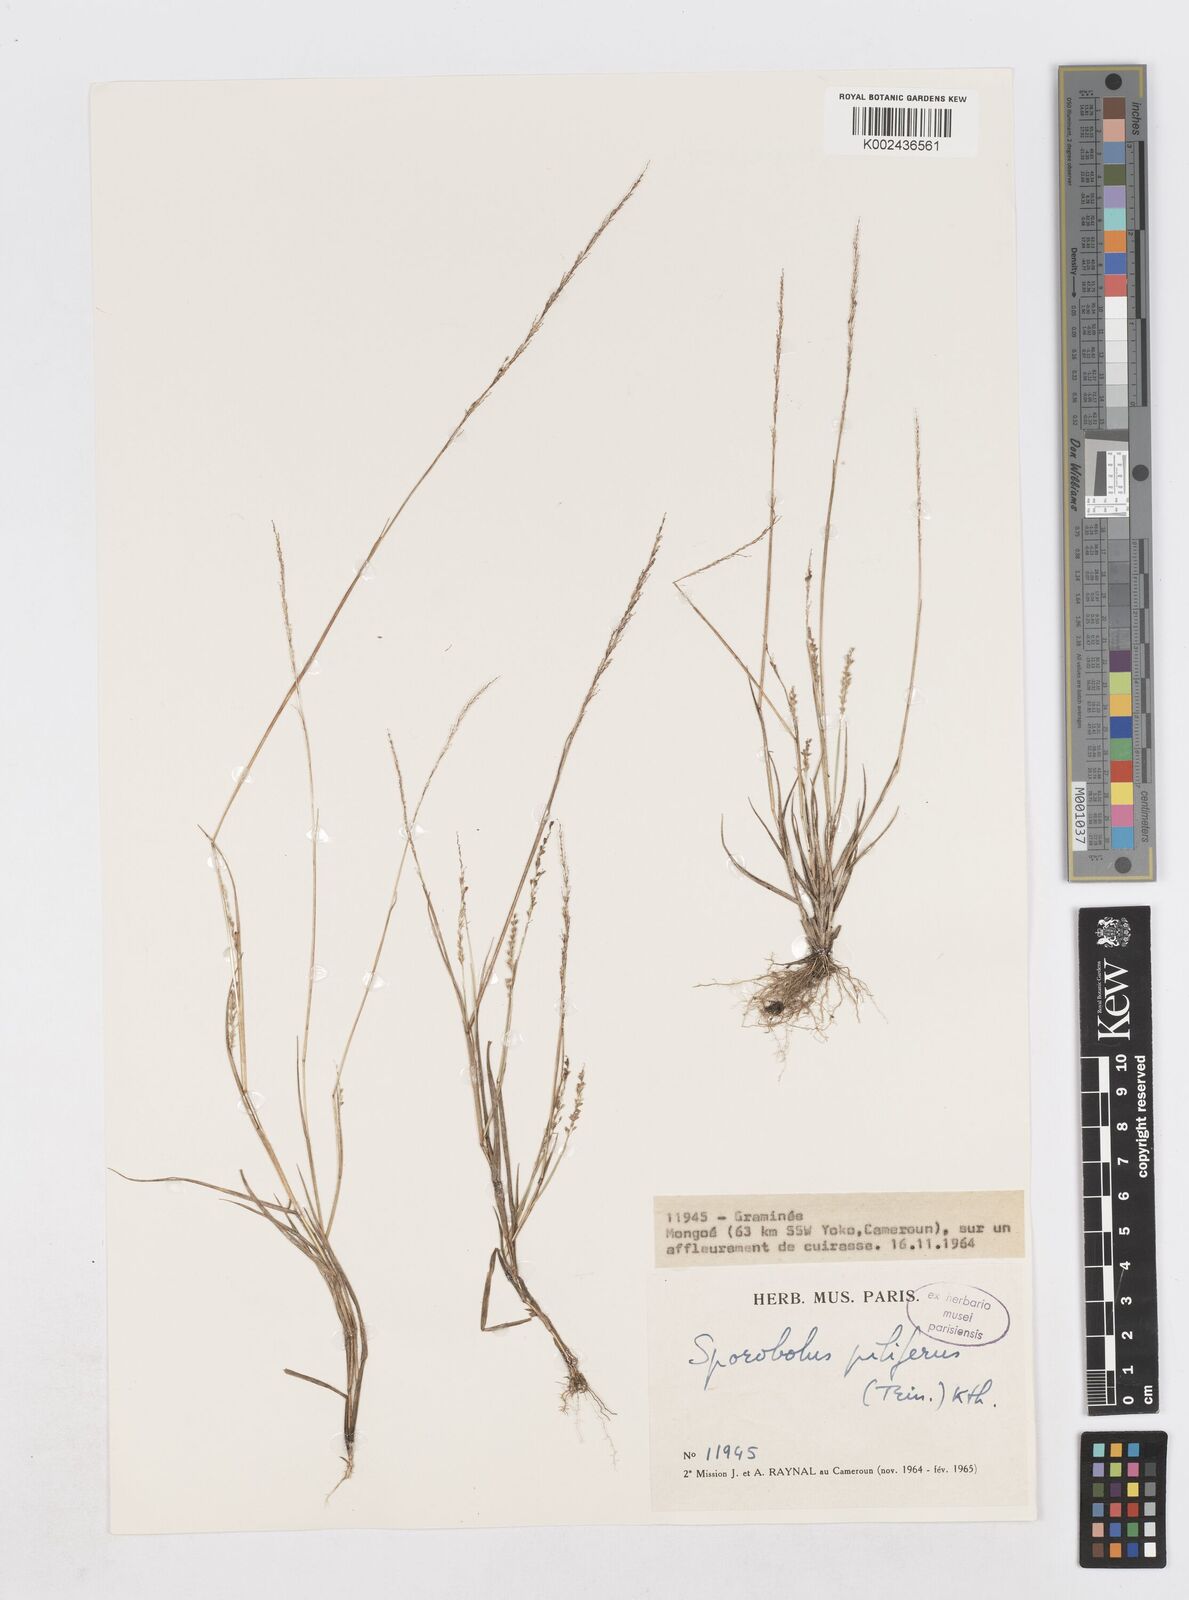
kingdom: Plantae
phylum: Tracheophyta
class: Liliopsida
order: Poales
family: Poaceae
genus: Sporobolus
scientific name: Sporobolus pilifer
